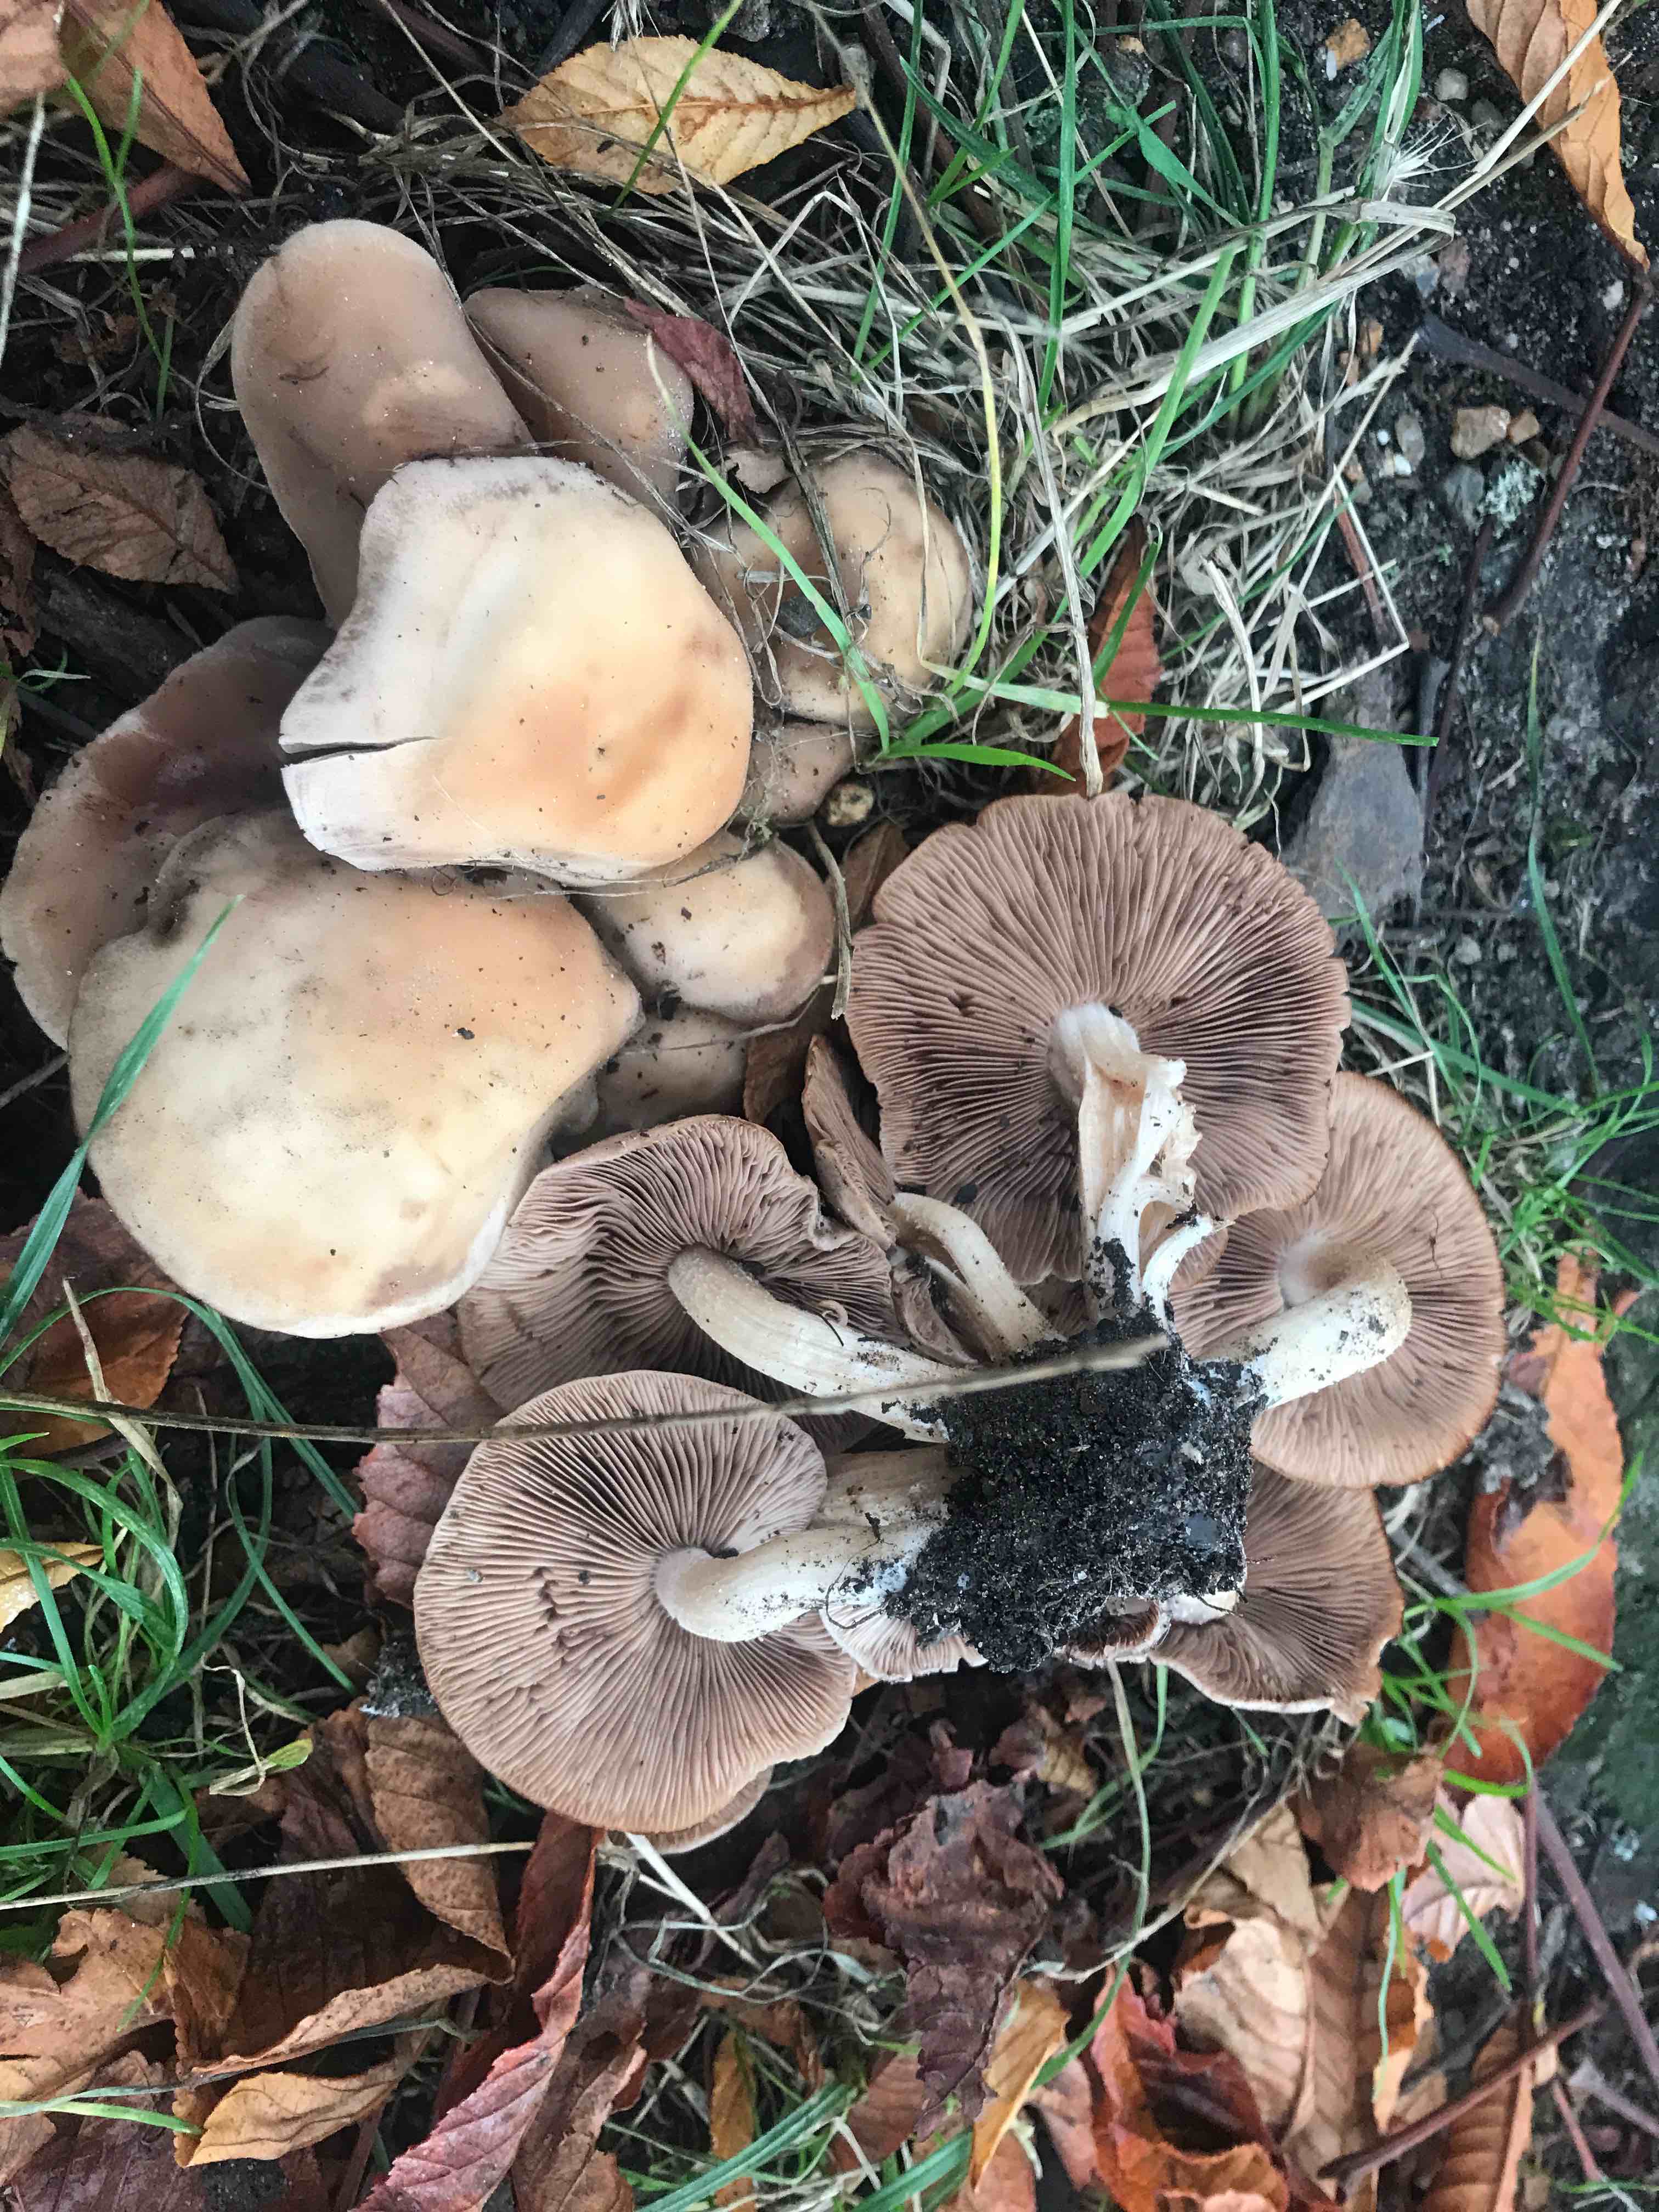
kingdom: Fungi
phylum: Basidiomycota
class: Agaricomycetes
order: Agaricales
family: Psathyrellaceae
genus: Homophron
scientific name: Homophron
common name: mørkhat
